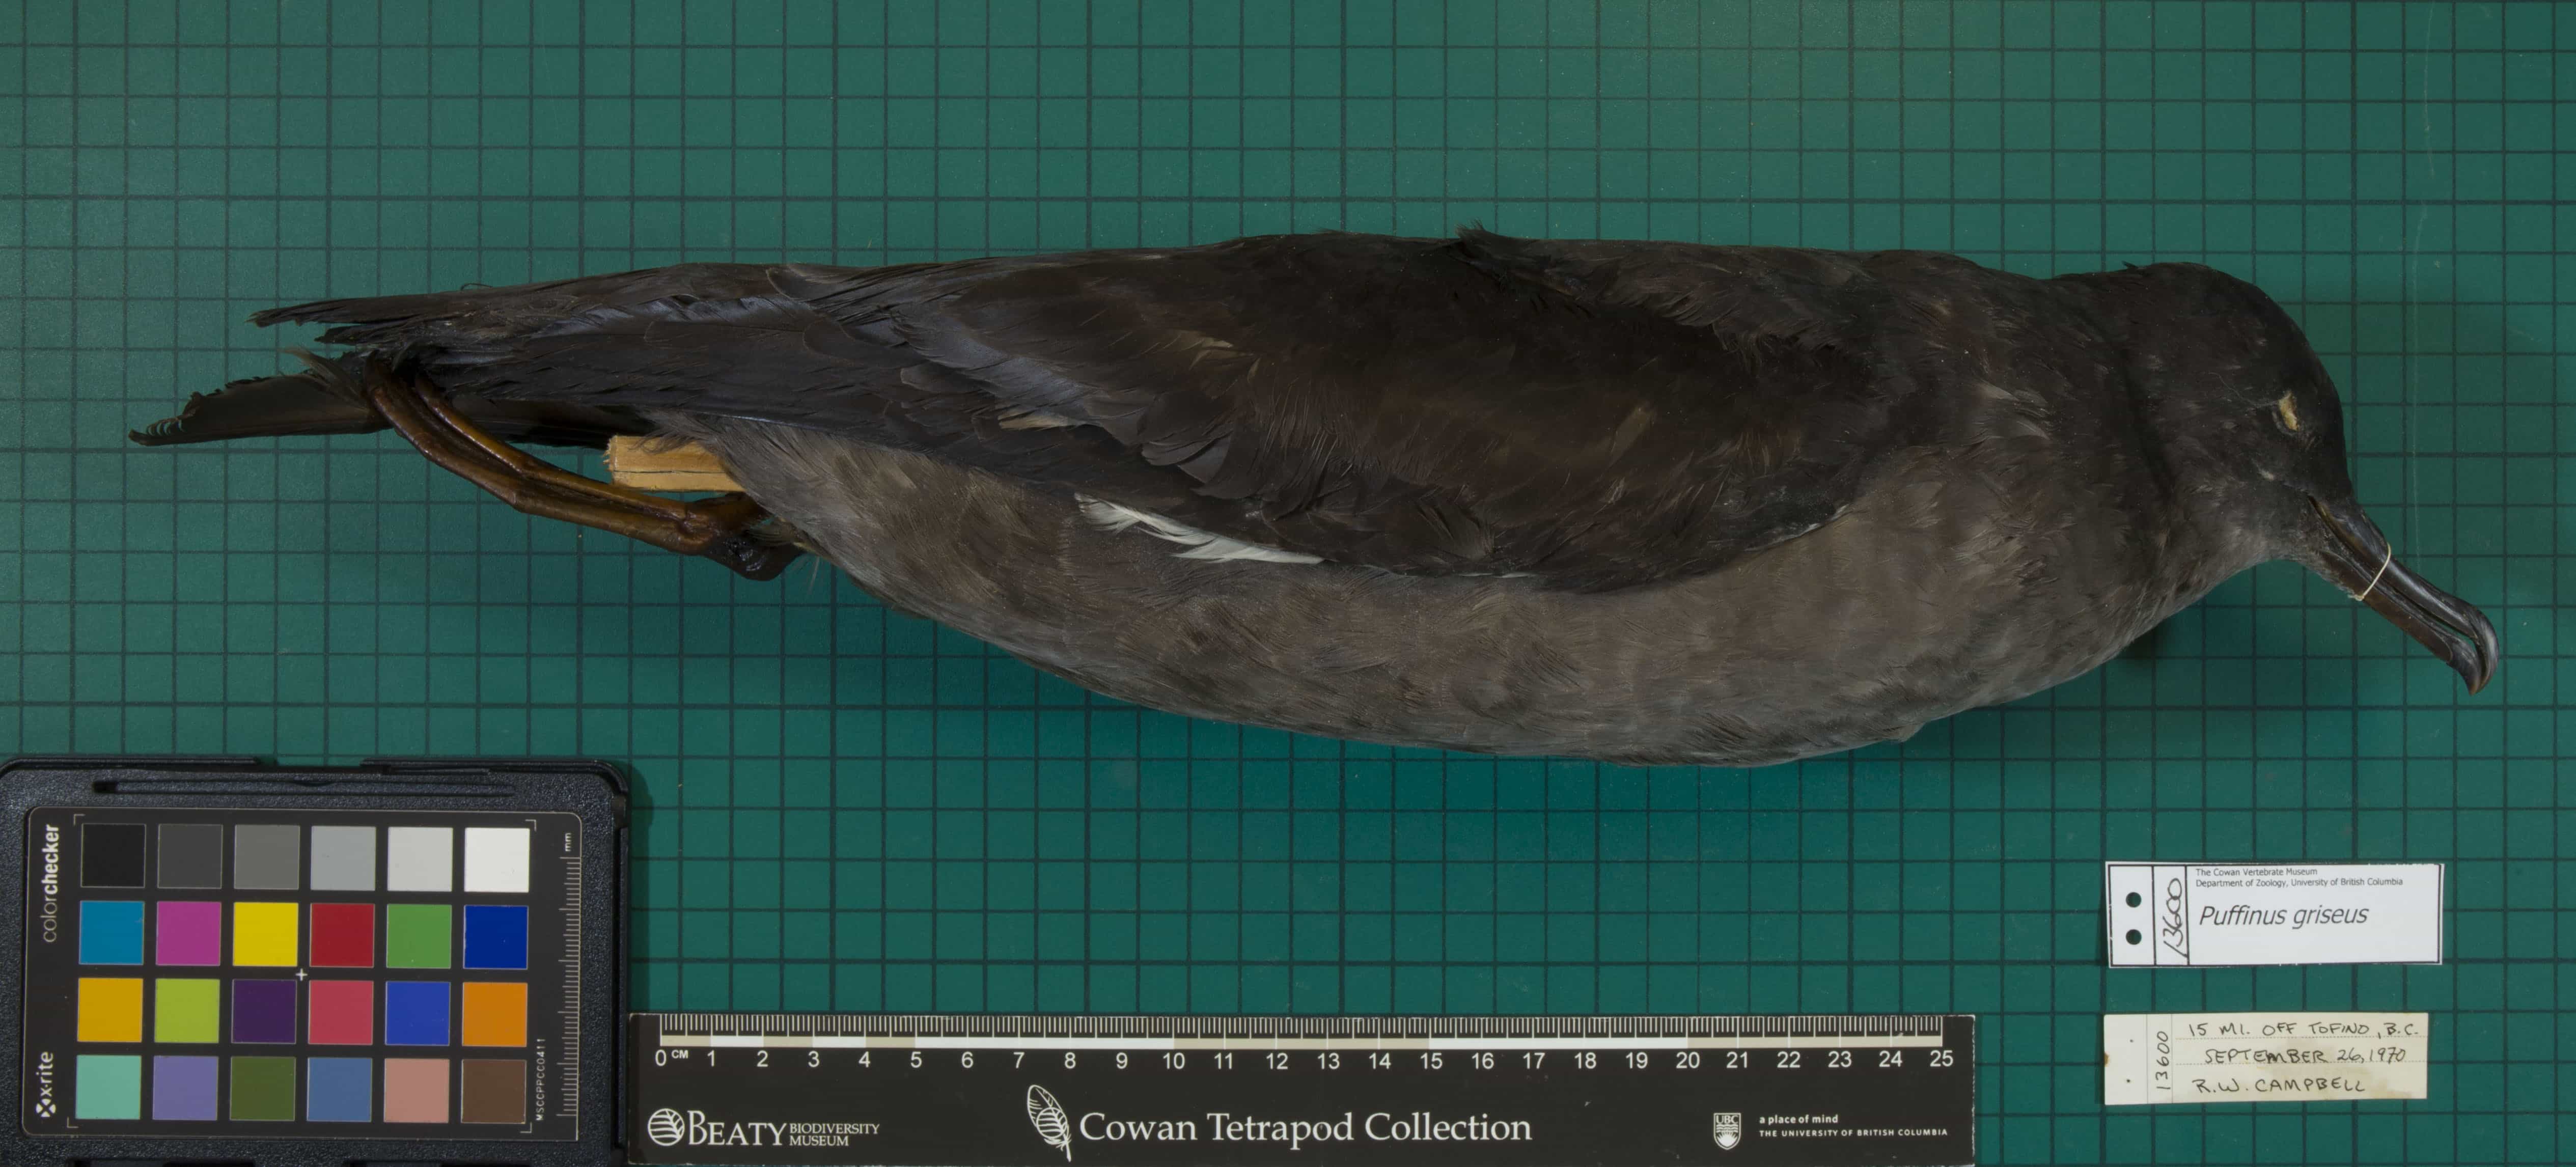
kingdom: Animalia
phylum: Chordata
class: Aves
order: Procellariiformes
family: Procellariidae
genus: Puffinus
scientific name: Puffinus griseus
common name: Sooty Shearwater
